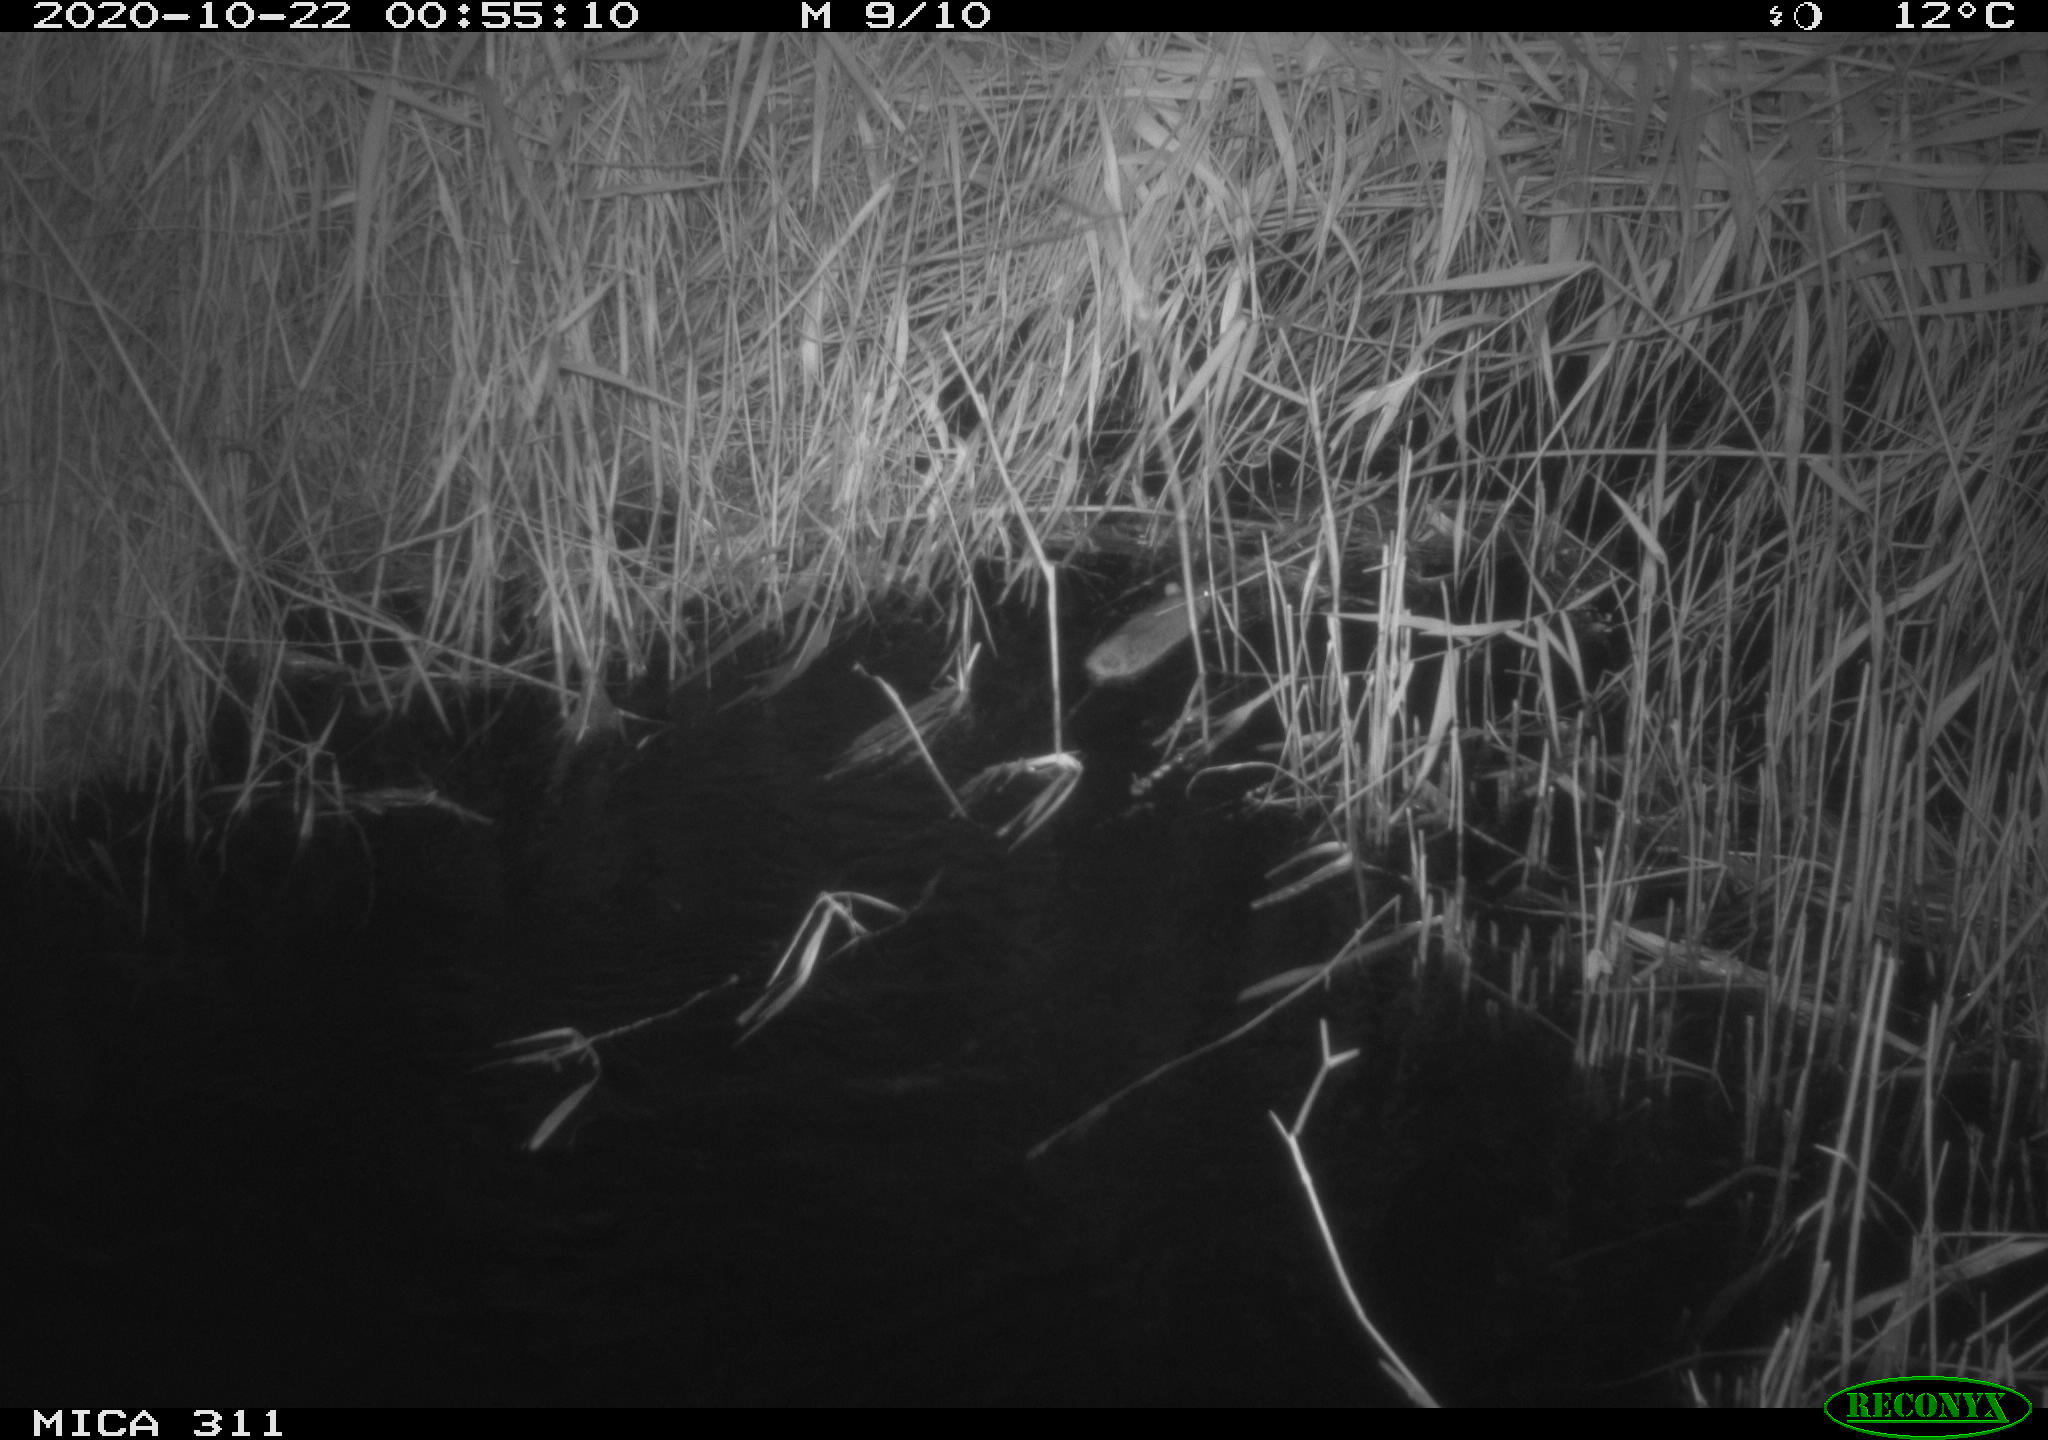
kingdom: Animalia
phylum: Chordata
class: Mammalia
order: Rodentia
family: Muridae
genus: Rattus
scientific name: Rattus norvegicus
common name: Brown rat
